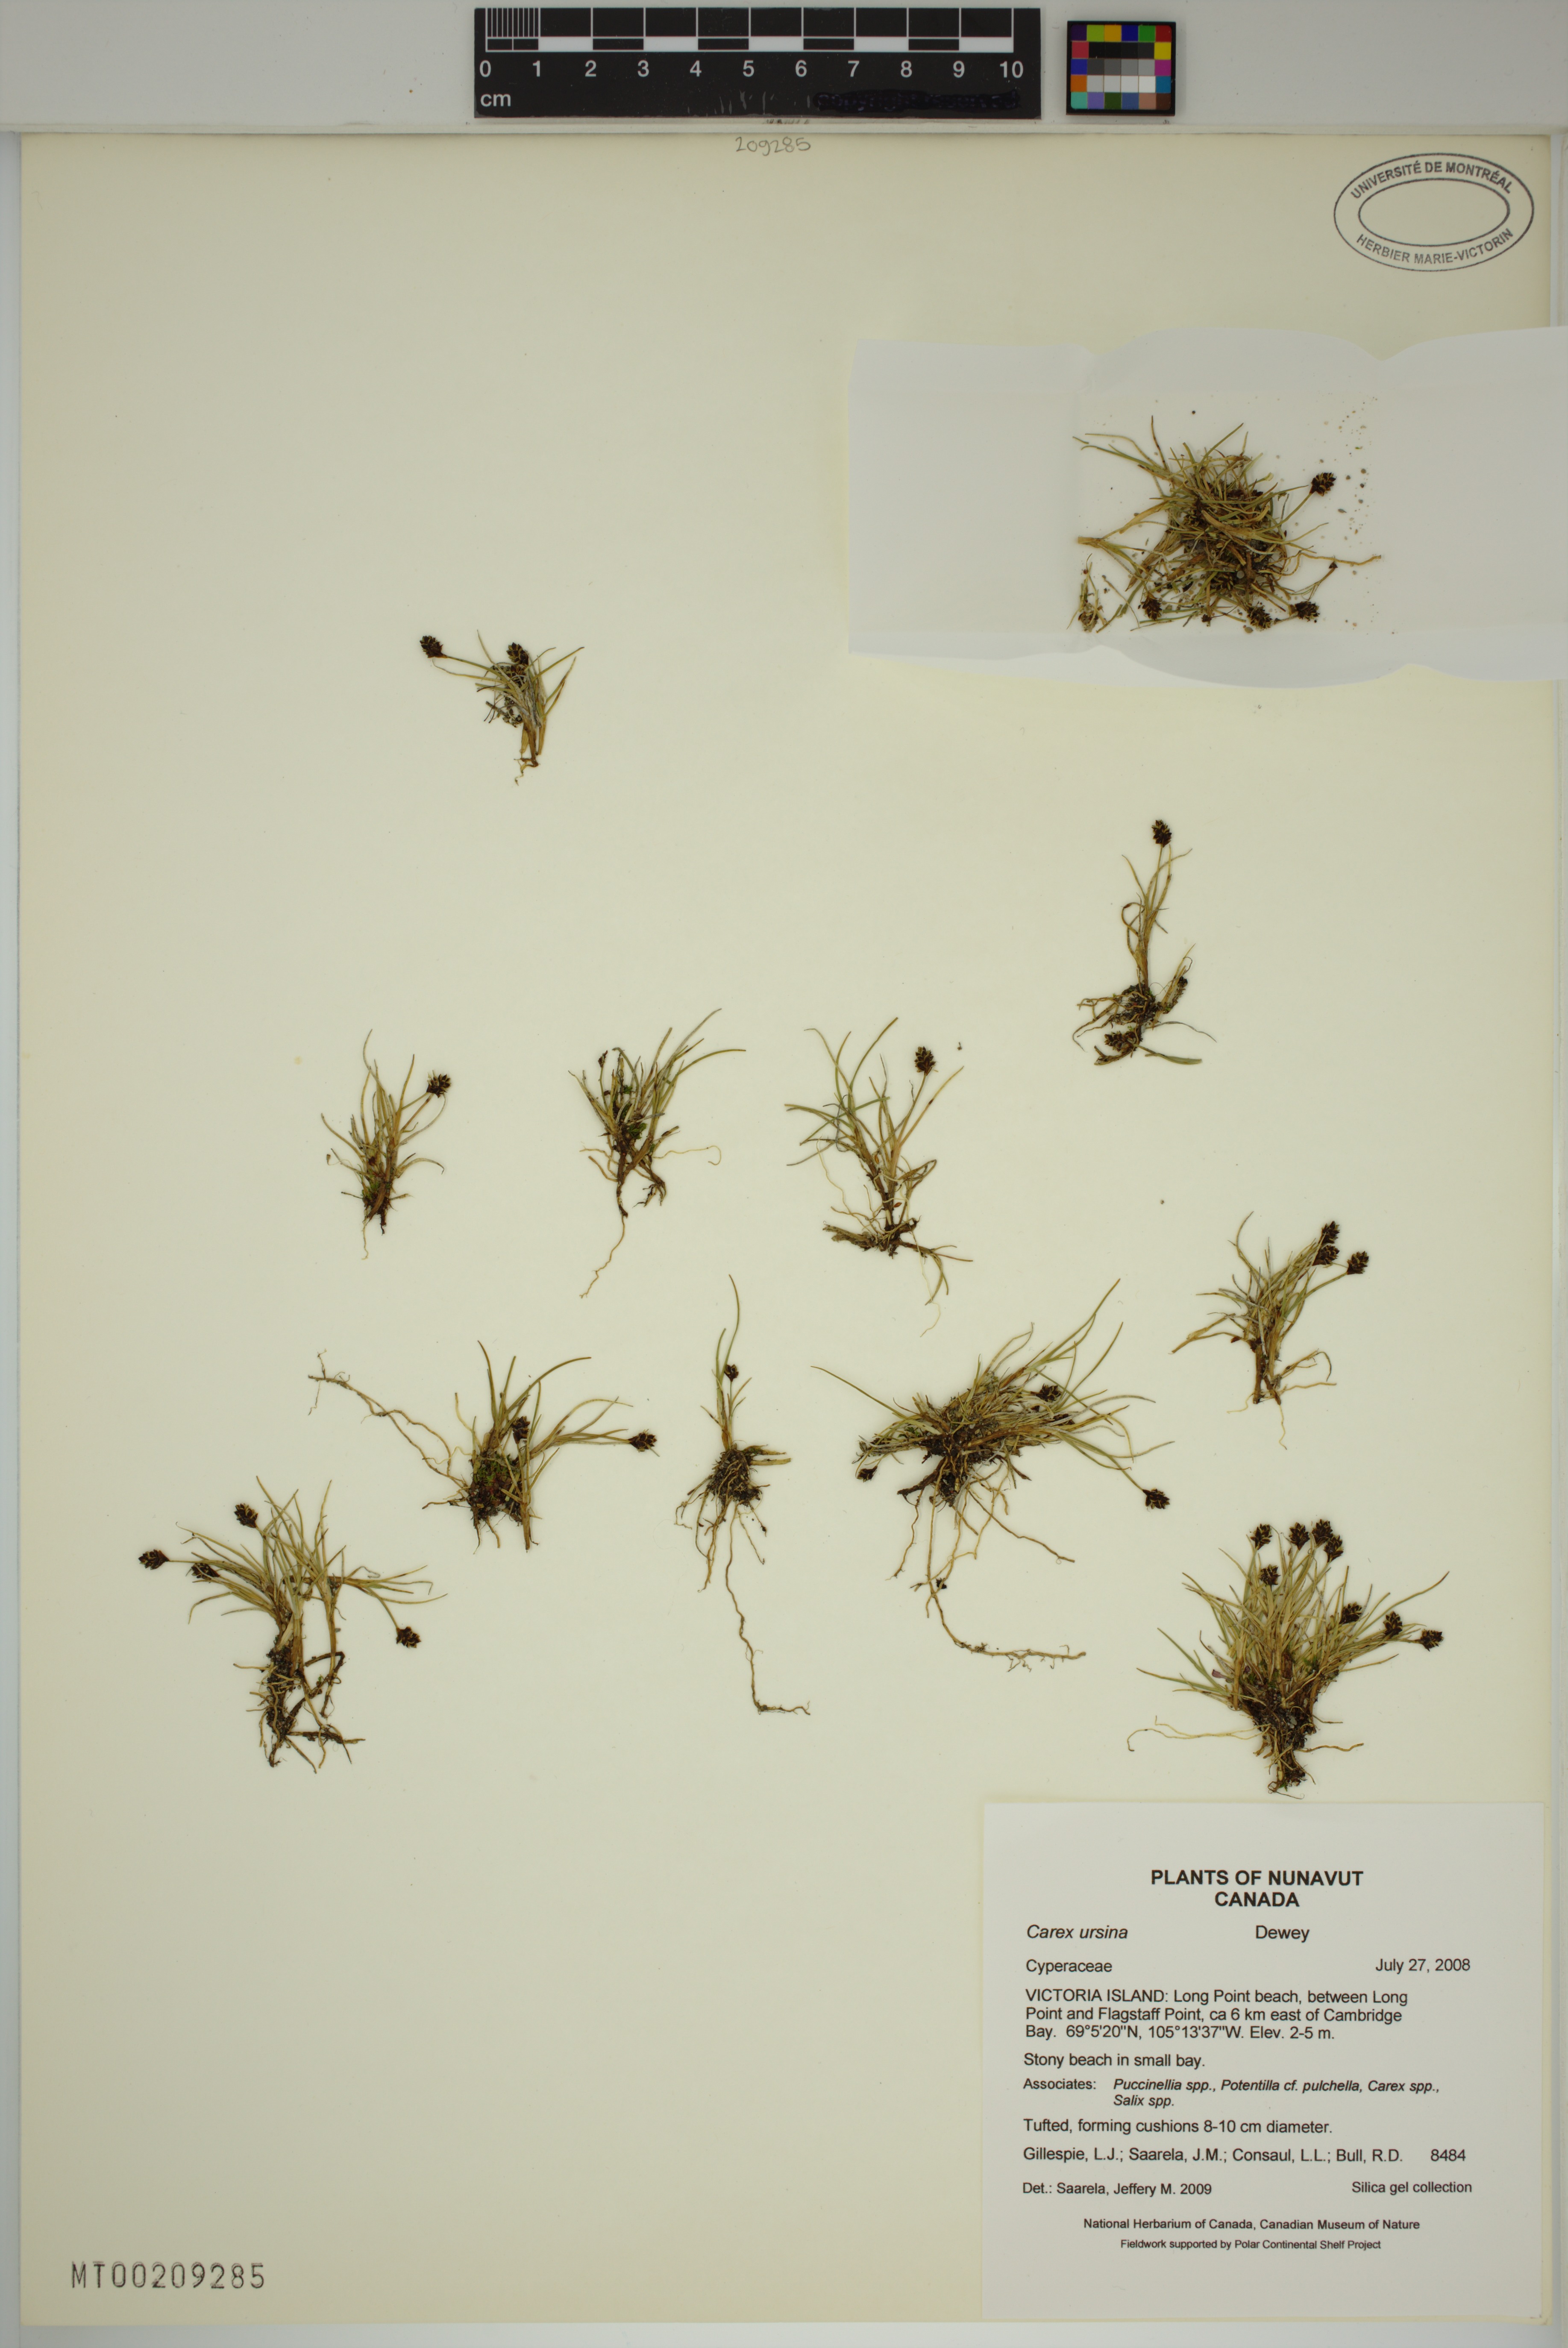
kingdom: Plantae
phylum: Tracheophyta
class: Liliopsida
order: Poales
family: Cyperaceae
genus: Carex
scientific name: Carex ursina
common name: Bear sedge
